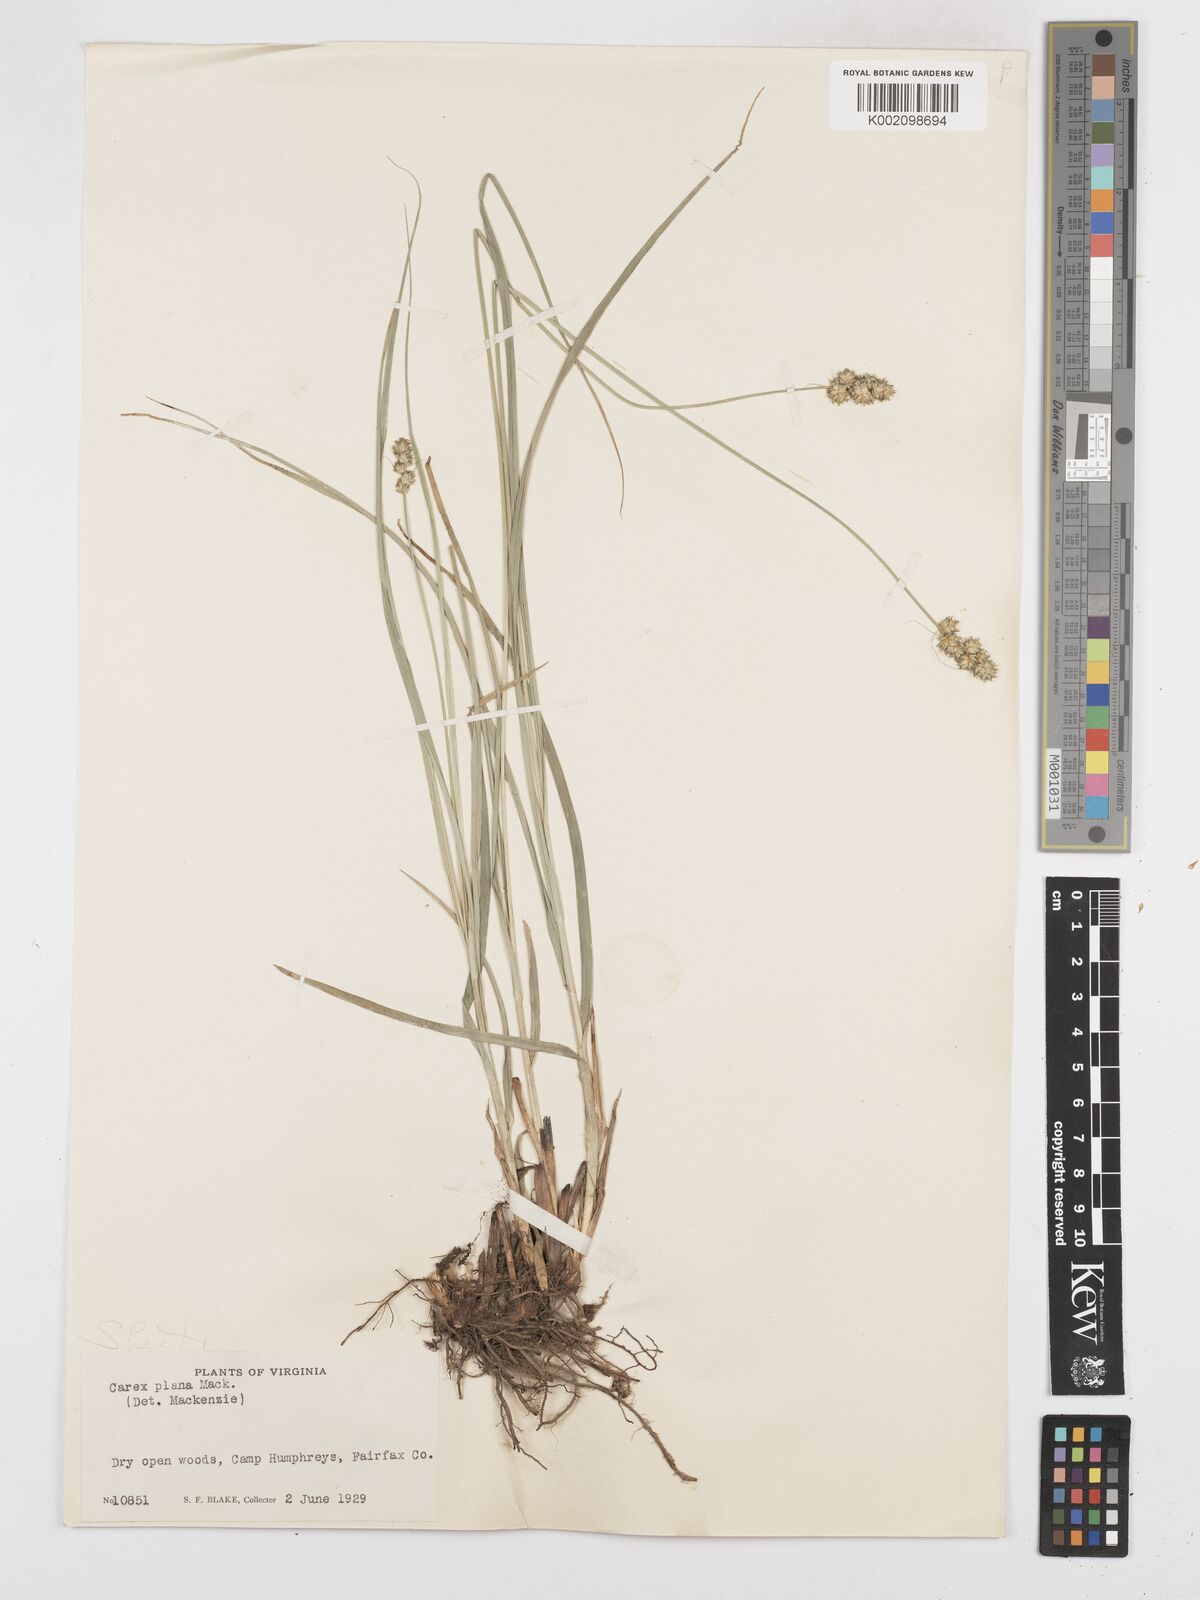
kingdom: Plantae
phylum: Tracheophyta
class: Liliopsida
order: Poales
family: Cyperaceae
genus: Carex
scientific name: Carex muehlenbergii
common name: Muhlenberg's bracted sedge
